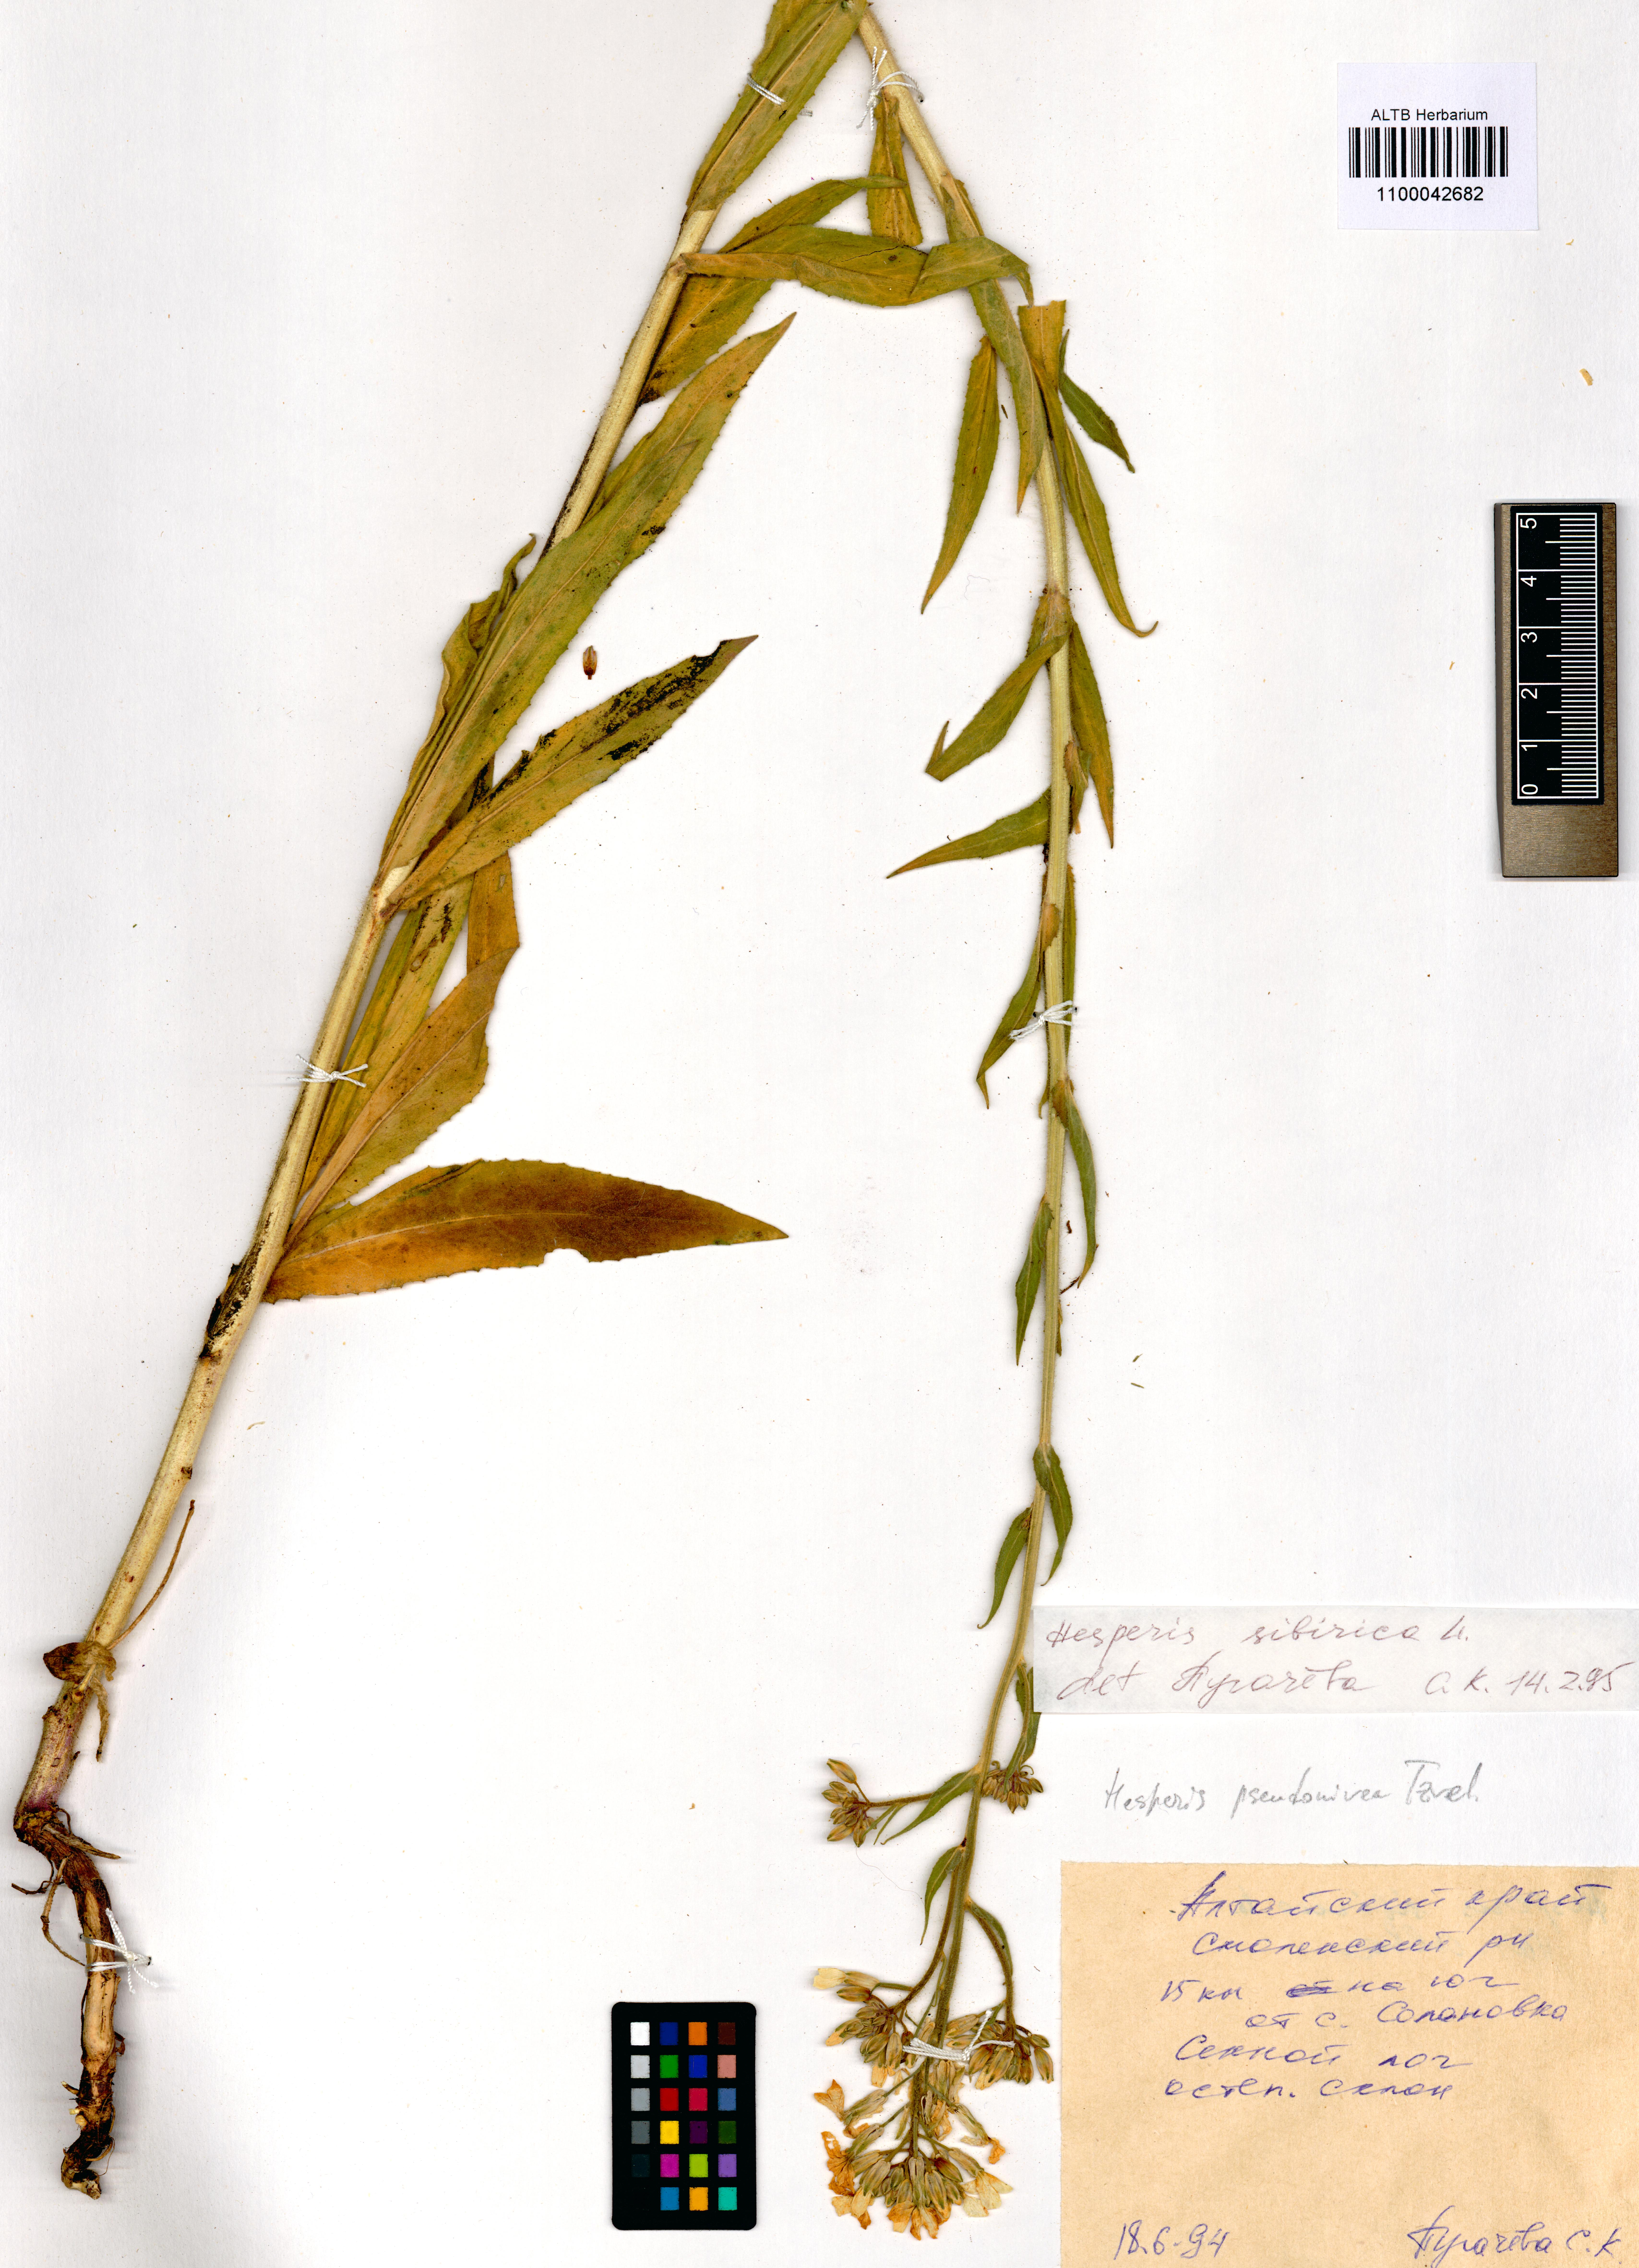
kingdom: Plantae
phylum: Tracheophyta
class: Magnoliopsida
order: Brassicales
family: Brassicaceae
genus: Hesperis
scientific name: Hesperis sibirica
